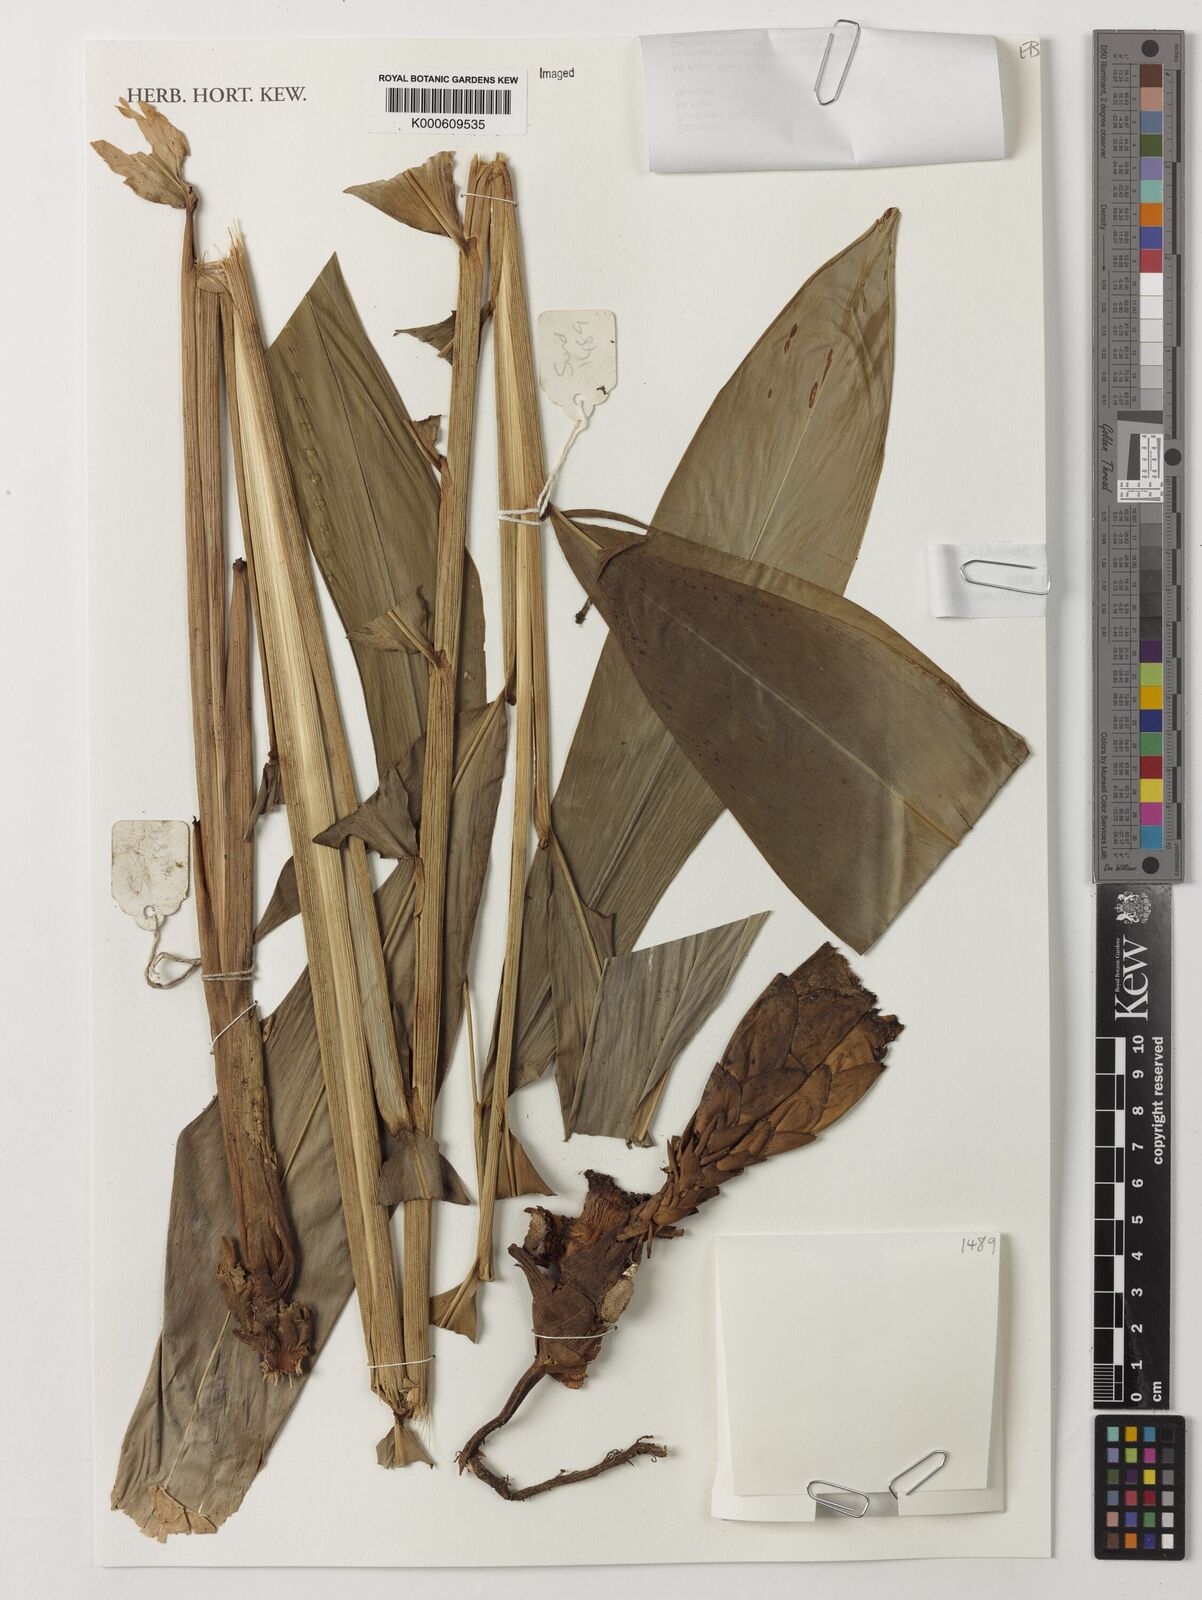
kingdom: Plantae
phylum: Tracheophyta
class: Liliopsida
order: Zingiberales
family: Zingiberaceae
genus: Aframomum
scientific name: Aframomum daniellii
